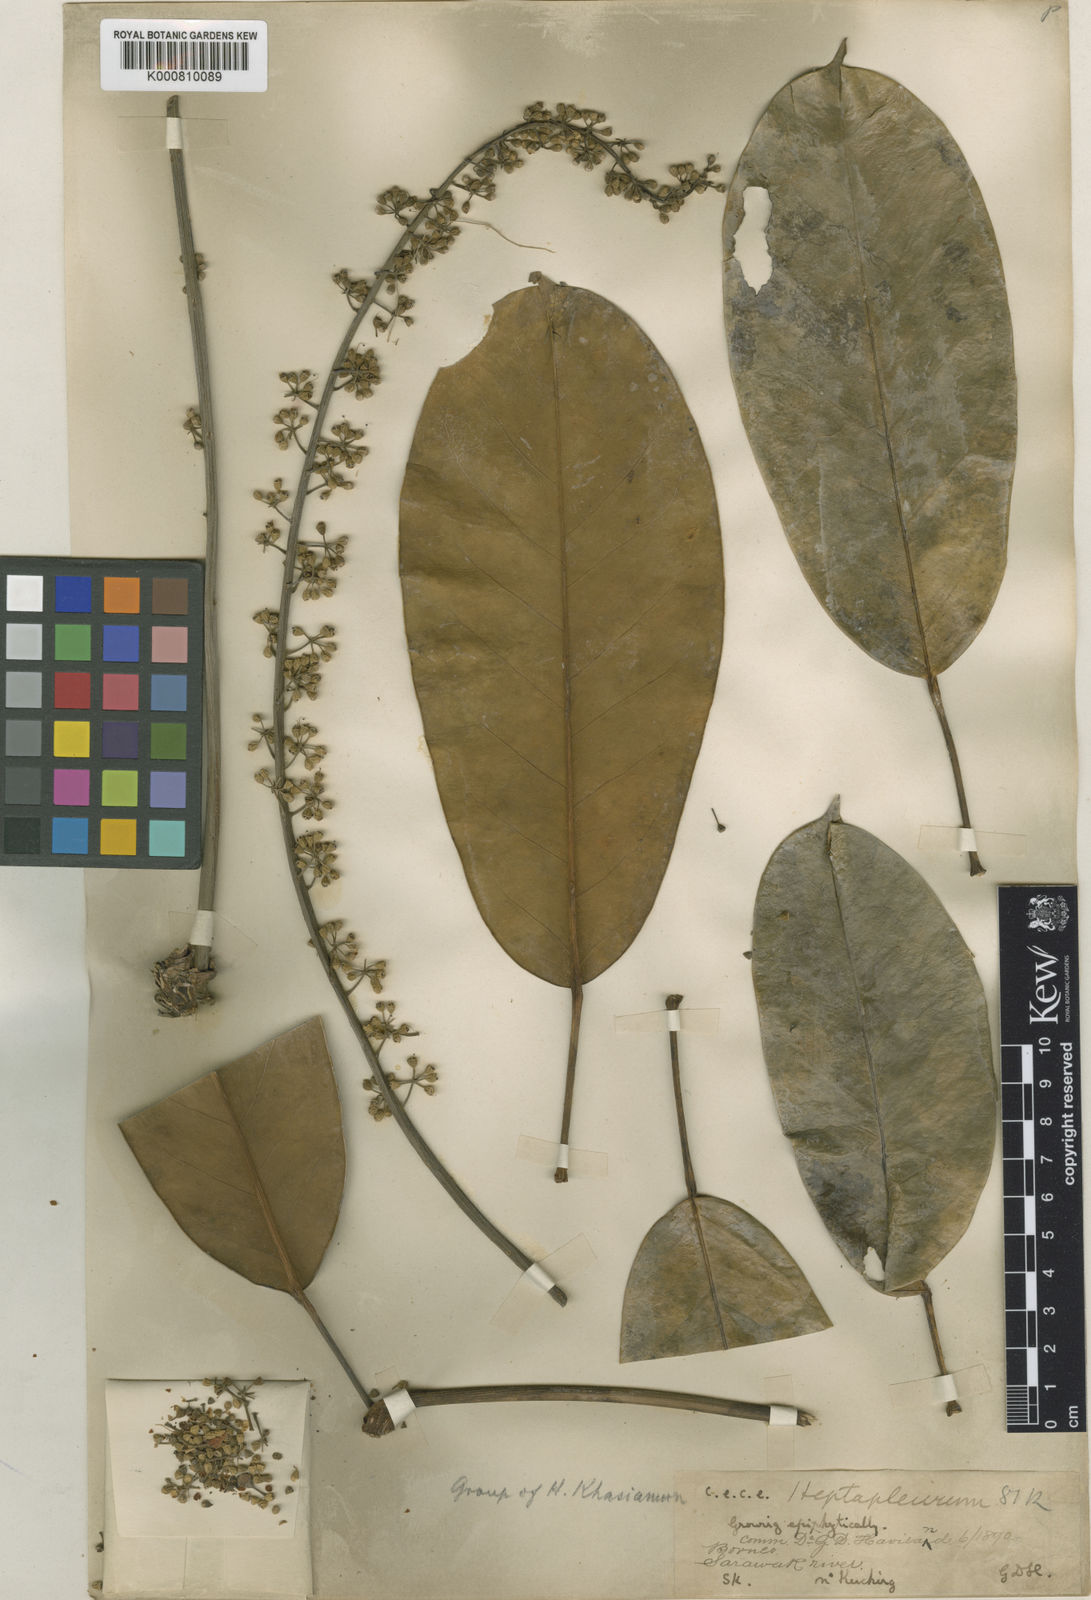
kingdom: Plantae
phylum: Tracheophyta
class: Magnoliopsida
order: Apiales
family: Araliaceae
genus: Heptapleurum
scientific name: Heptapleurum havilandii
